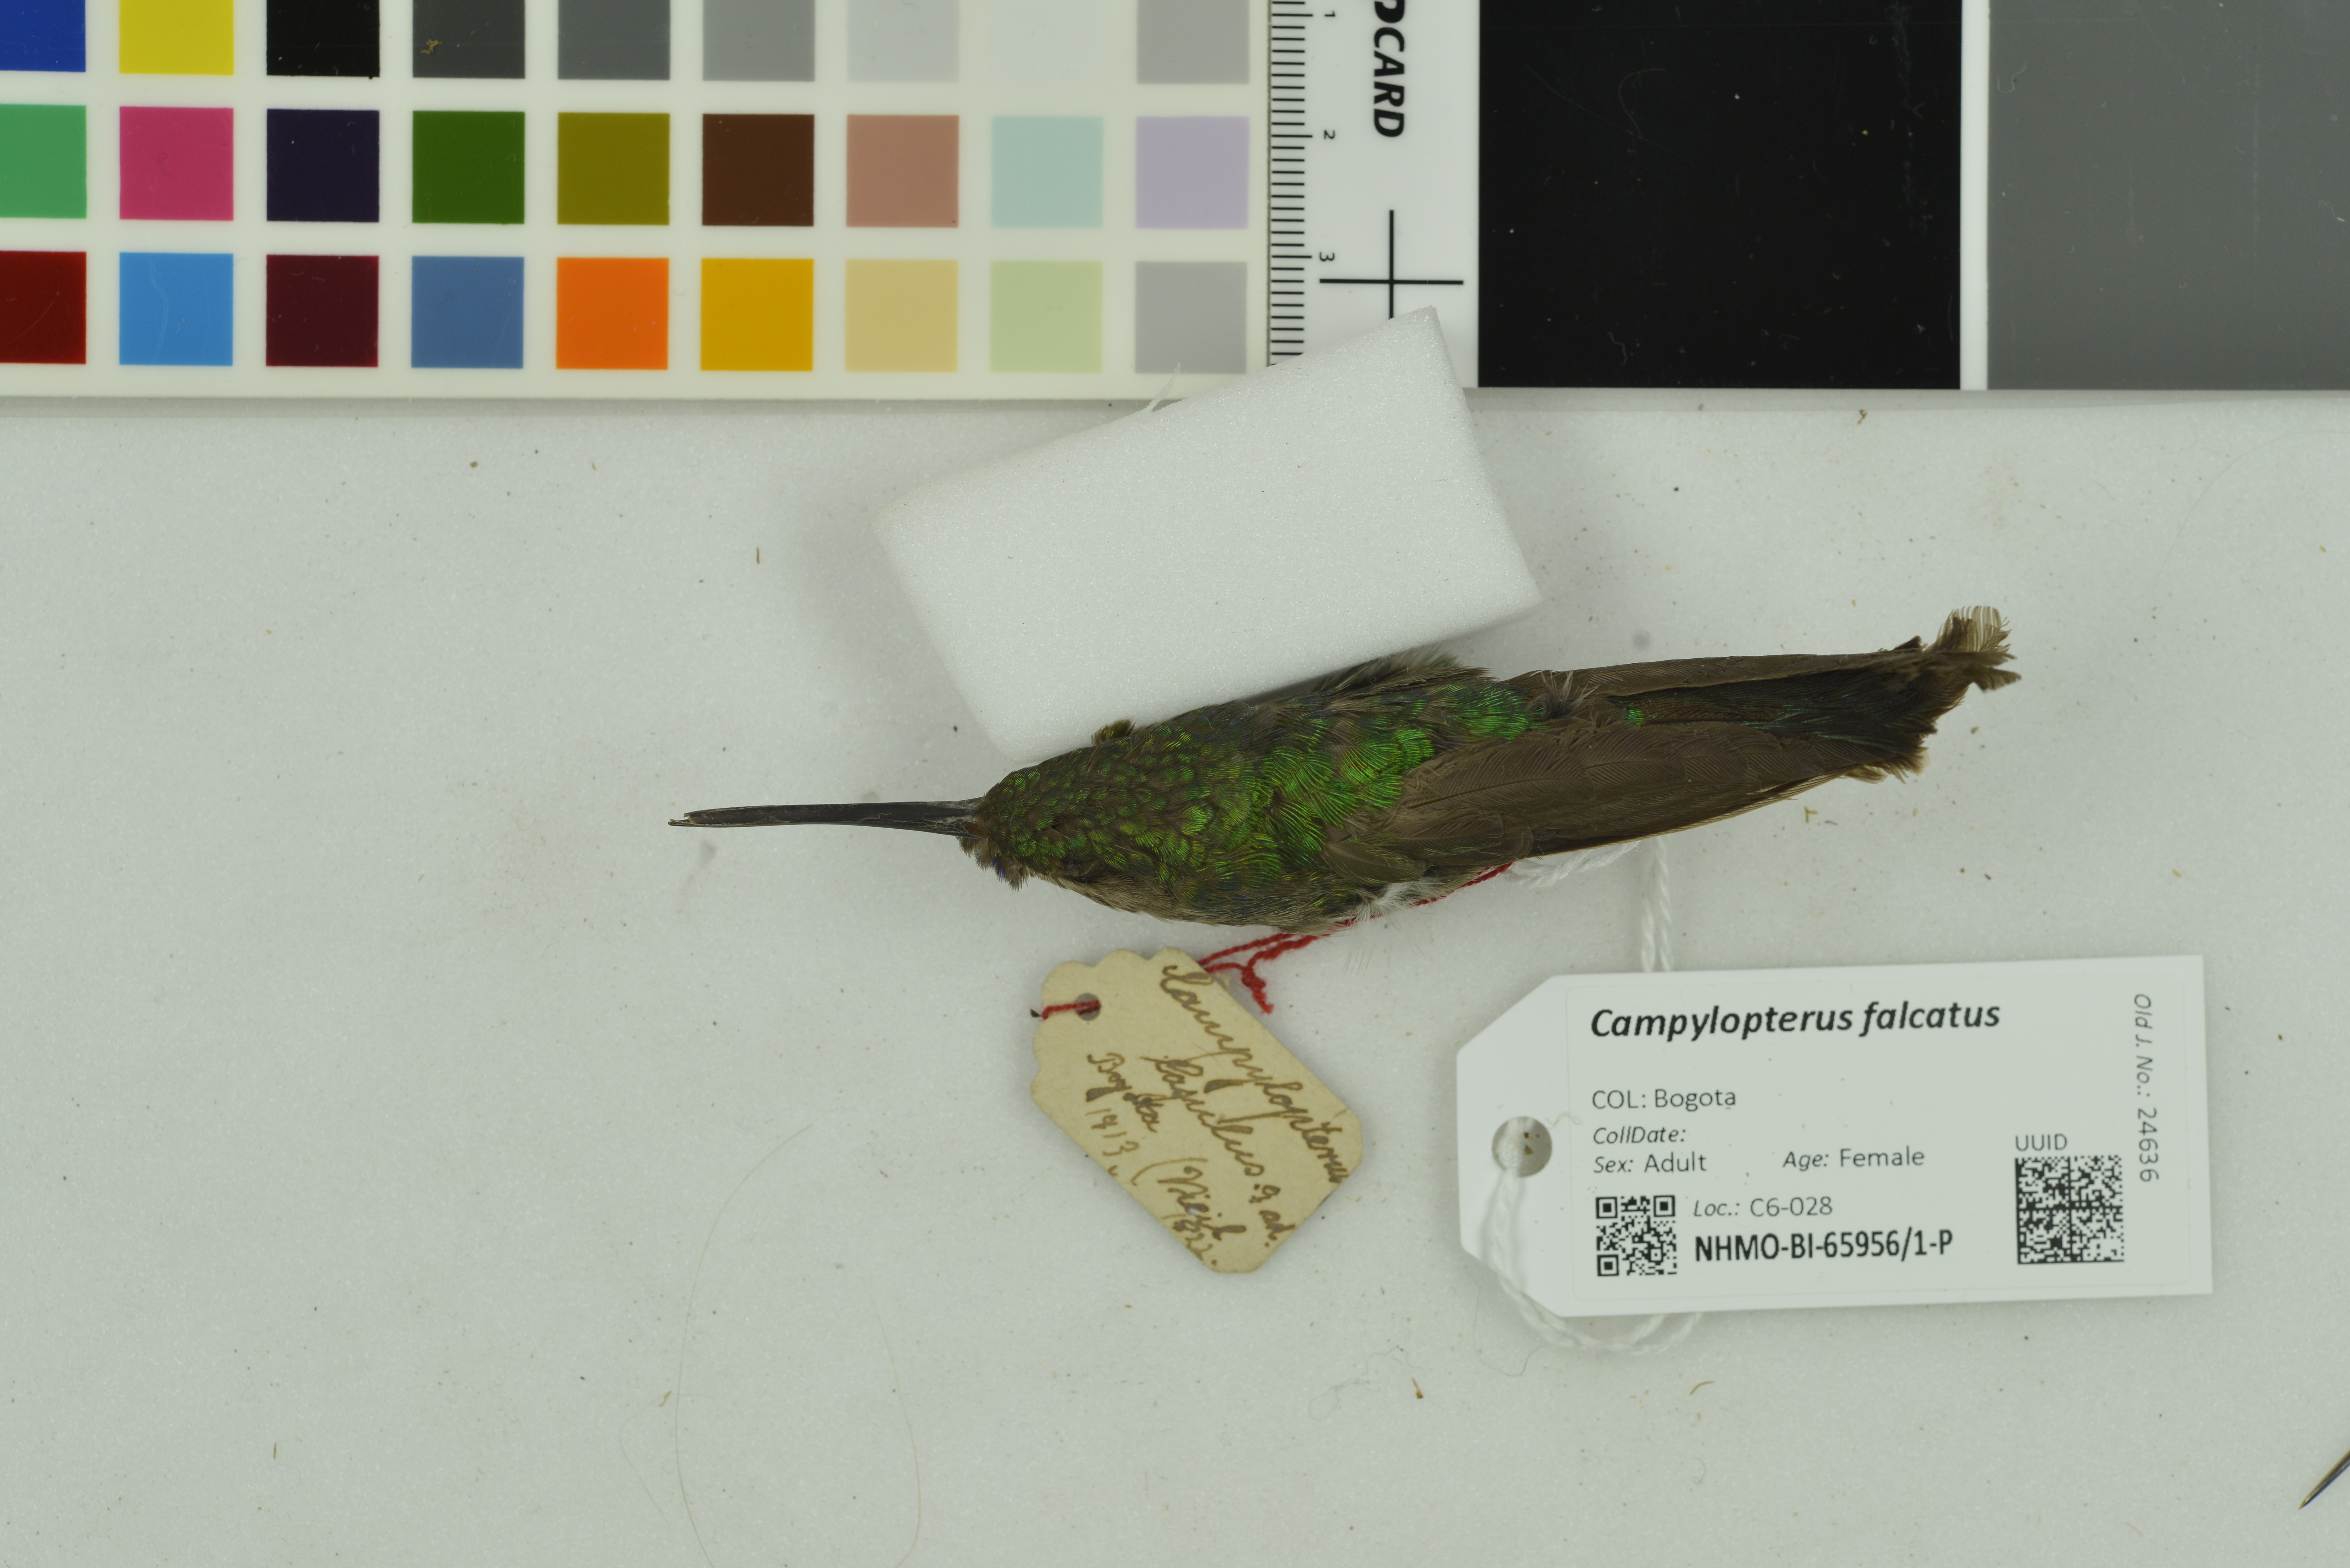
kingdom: Animalia
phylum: Chordata
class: Aves
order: Apodiformes
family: Trochilidae
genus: Campylopterus
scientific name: Campylopterus falcatus
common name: Lazuline sabrewing
